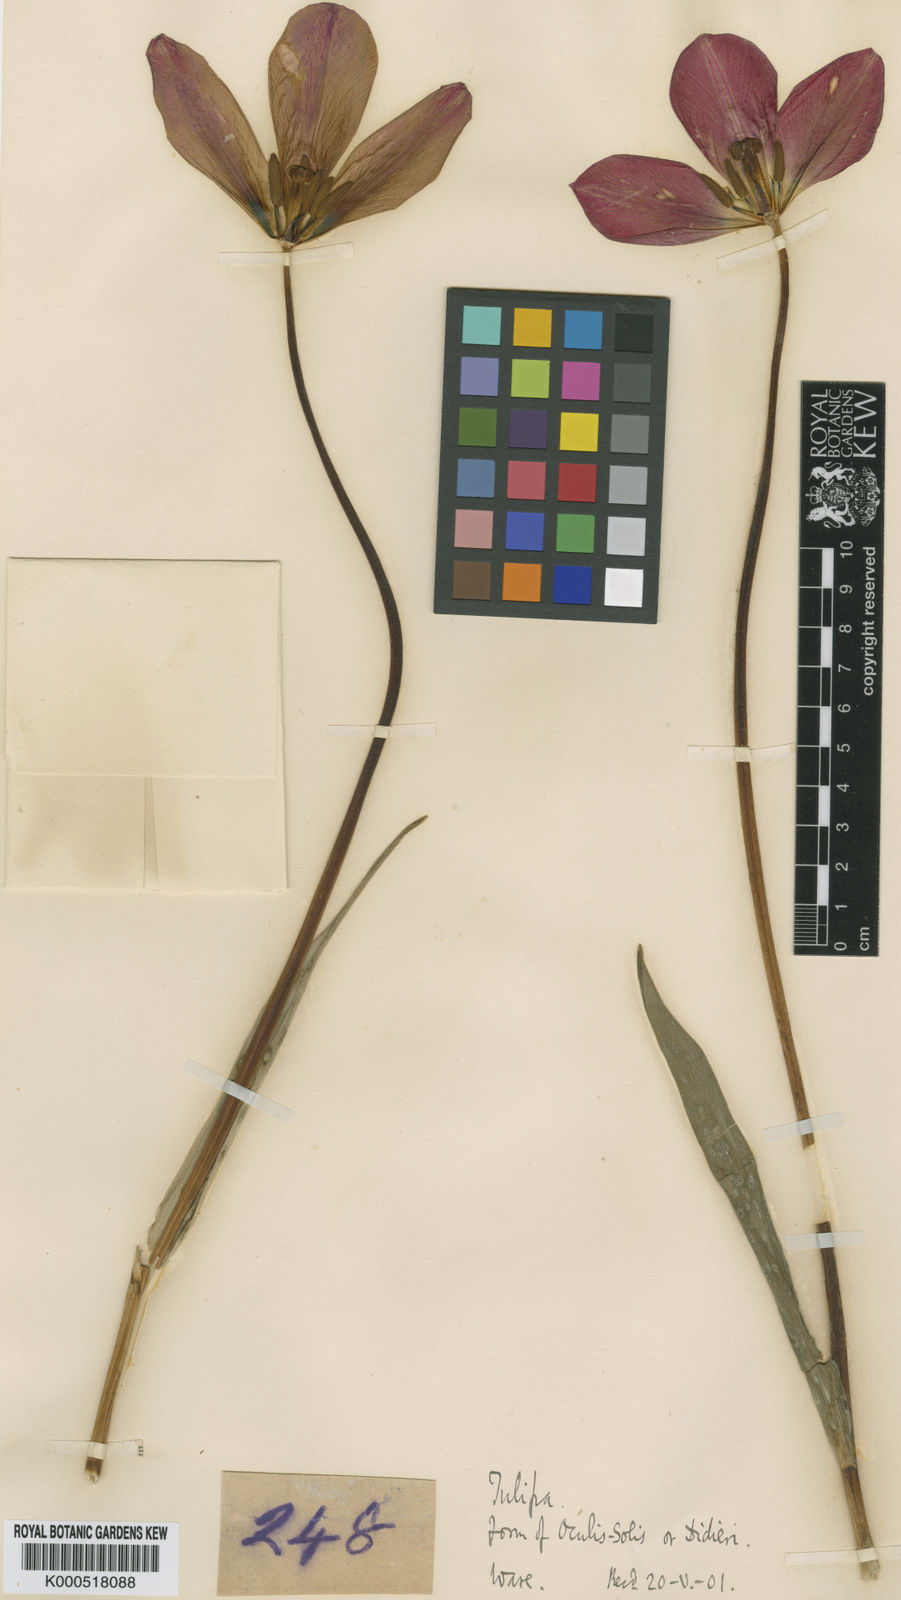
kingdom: Plantae
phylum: Tracheophyta
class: Liliopsida
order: Liliales
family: Liliaceae
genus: Tulipa
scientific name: Tulipa
